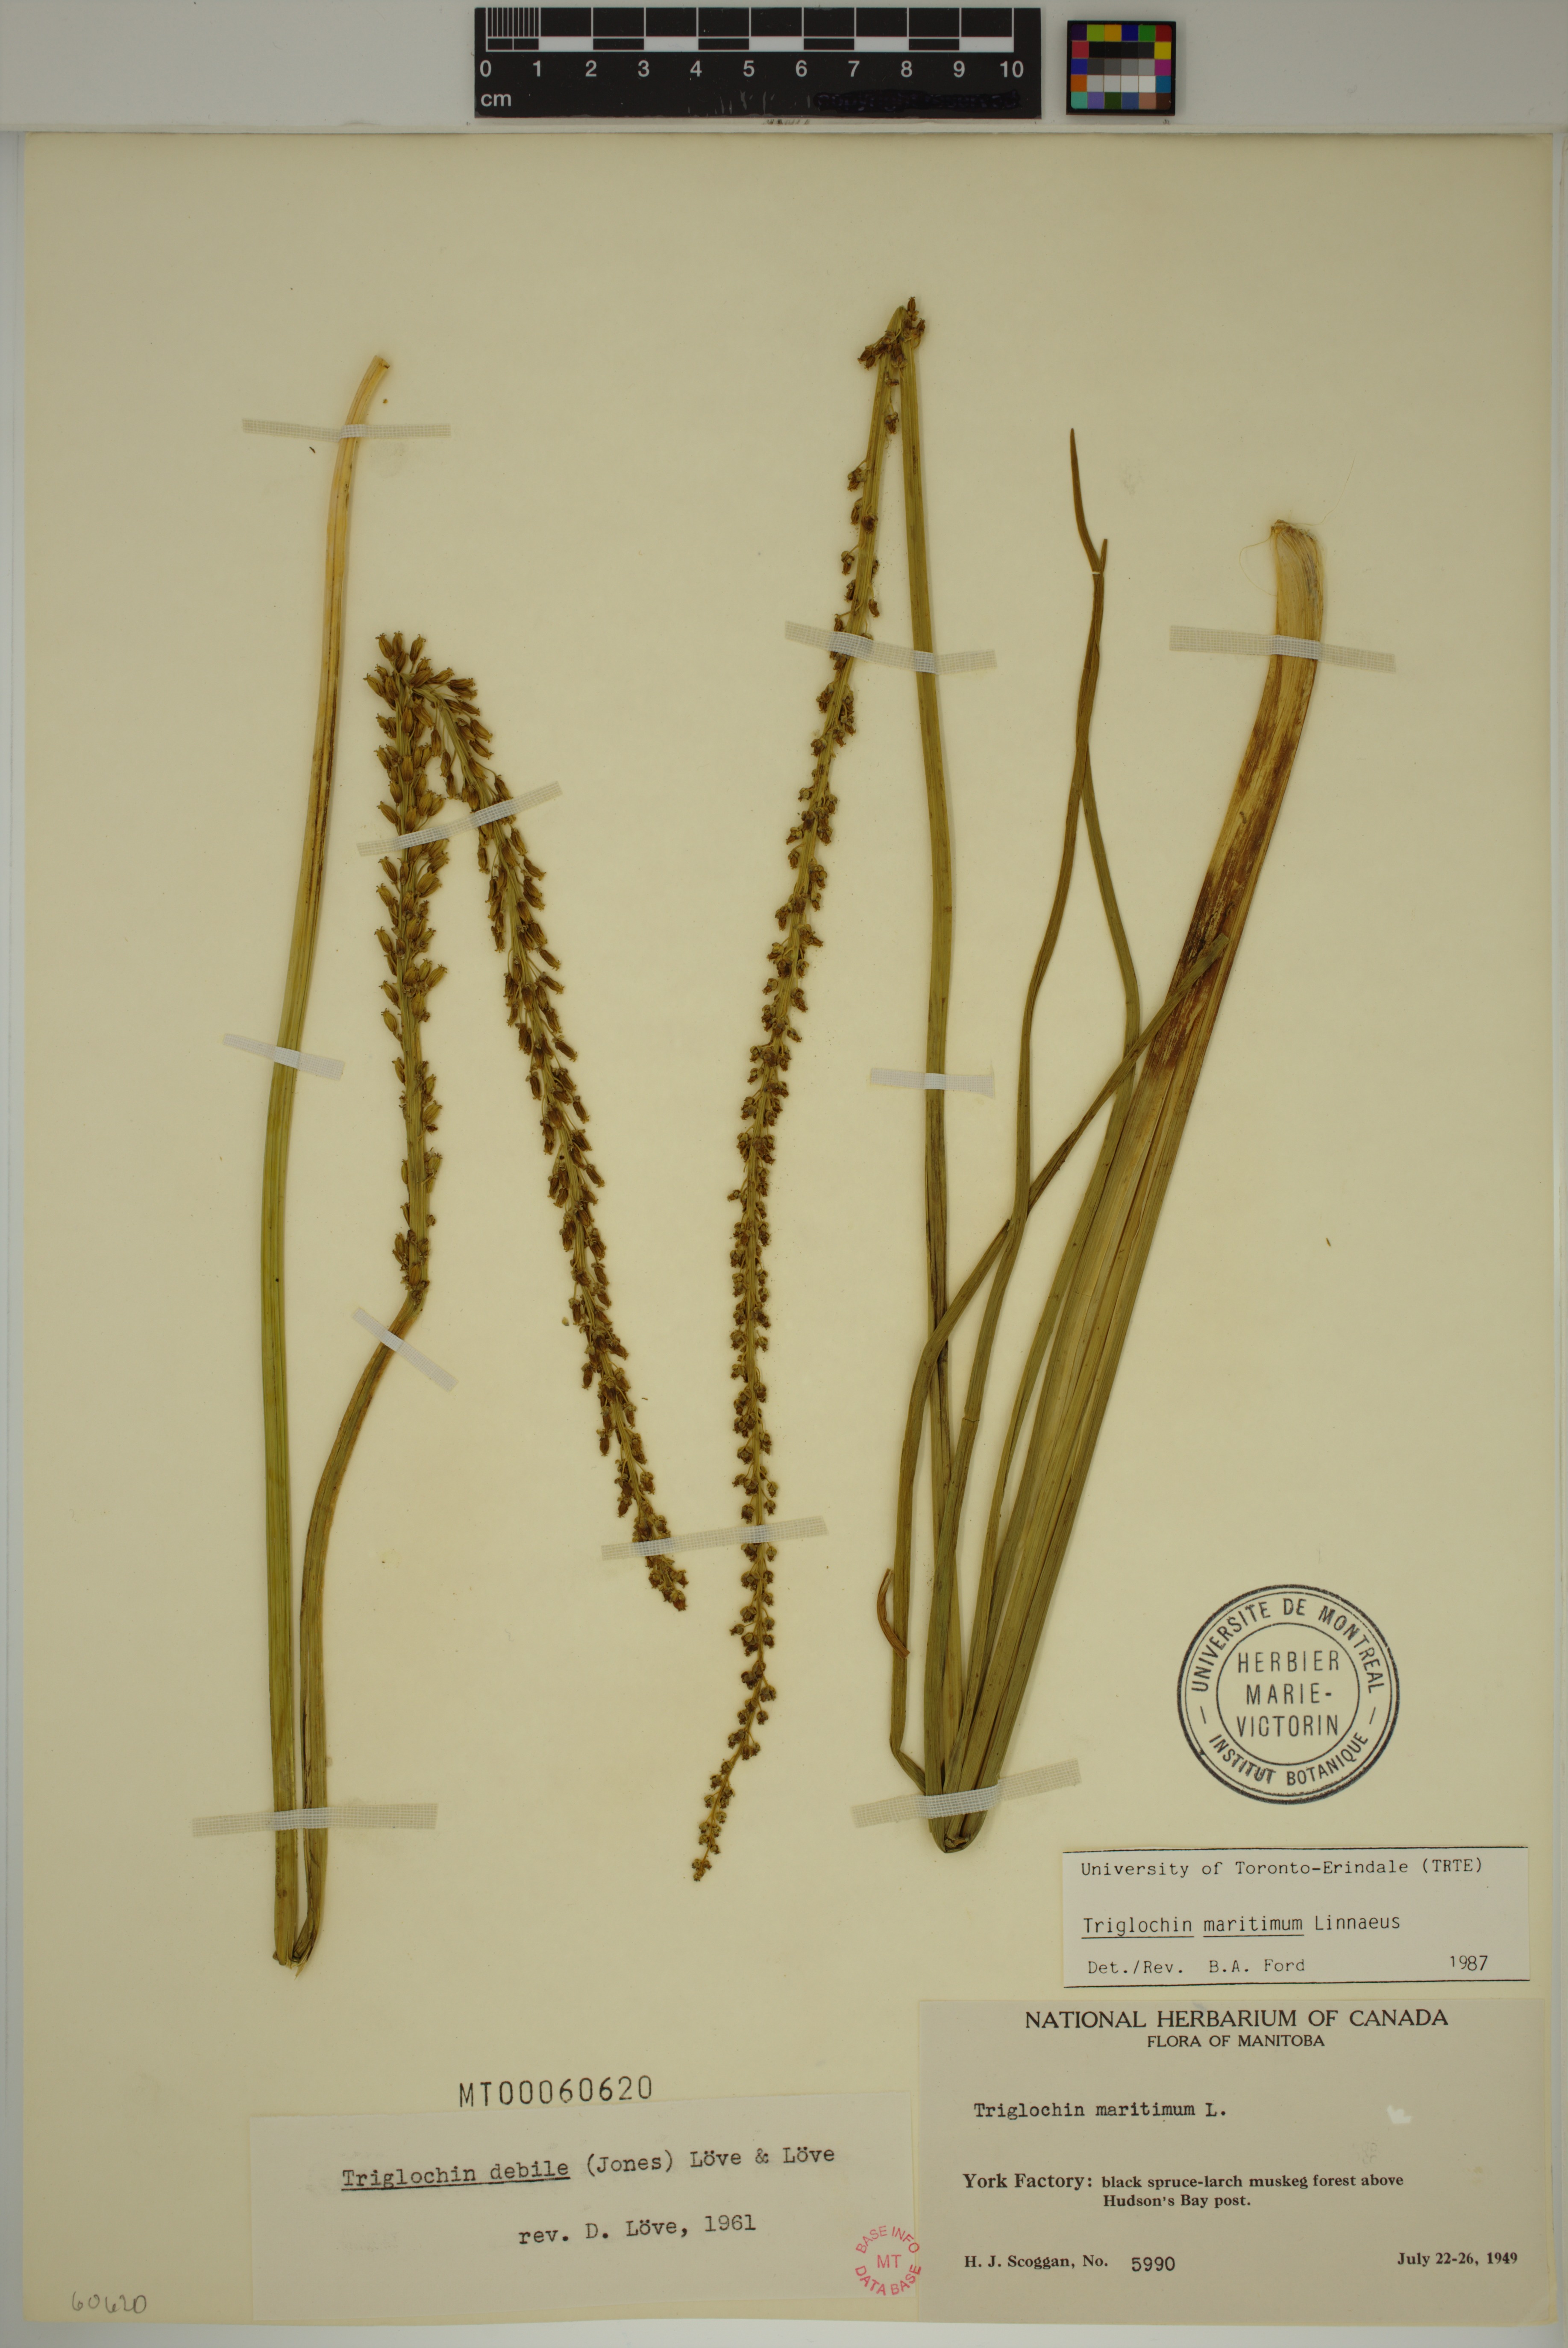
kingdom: Plantae
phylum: Tracheophyta
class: Liliopsida
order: Alismatales
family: Juncaginaceae
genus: Triglochin
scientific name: Triglochin maritima
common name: Sea arrowgrass
